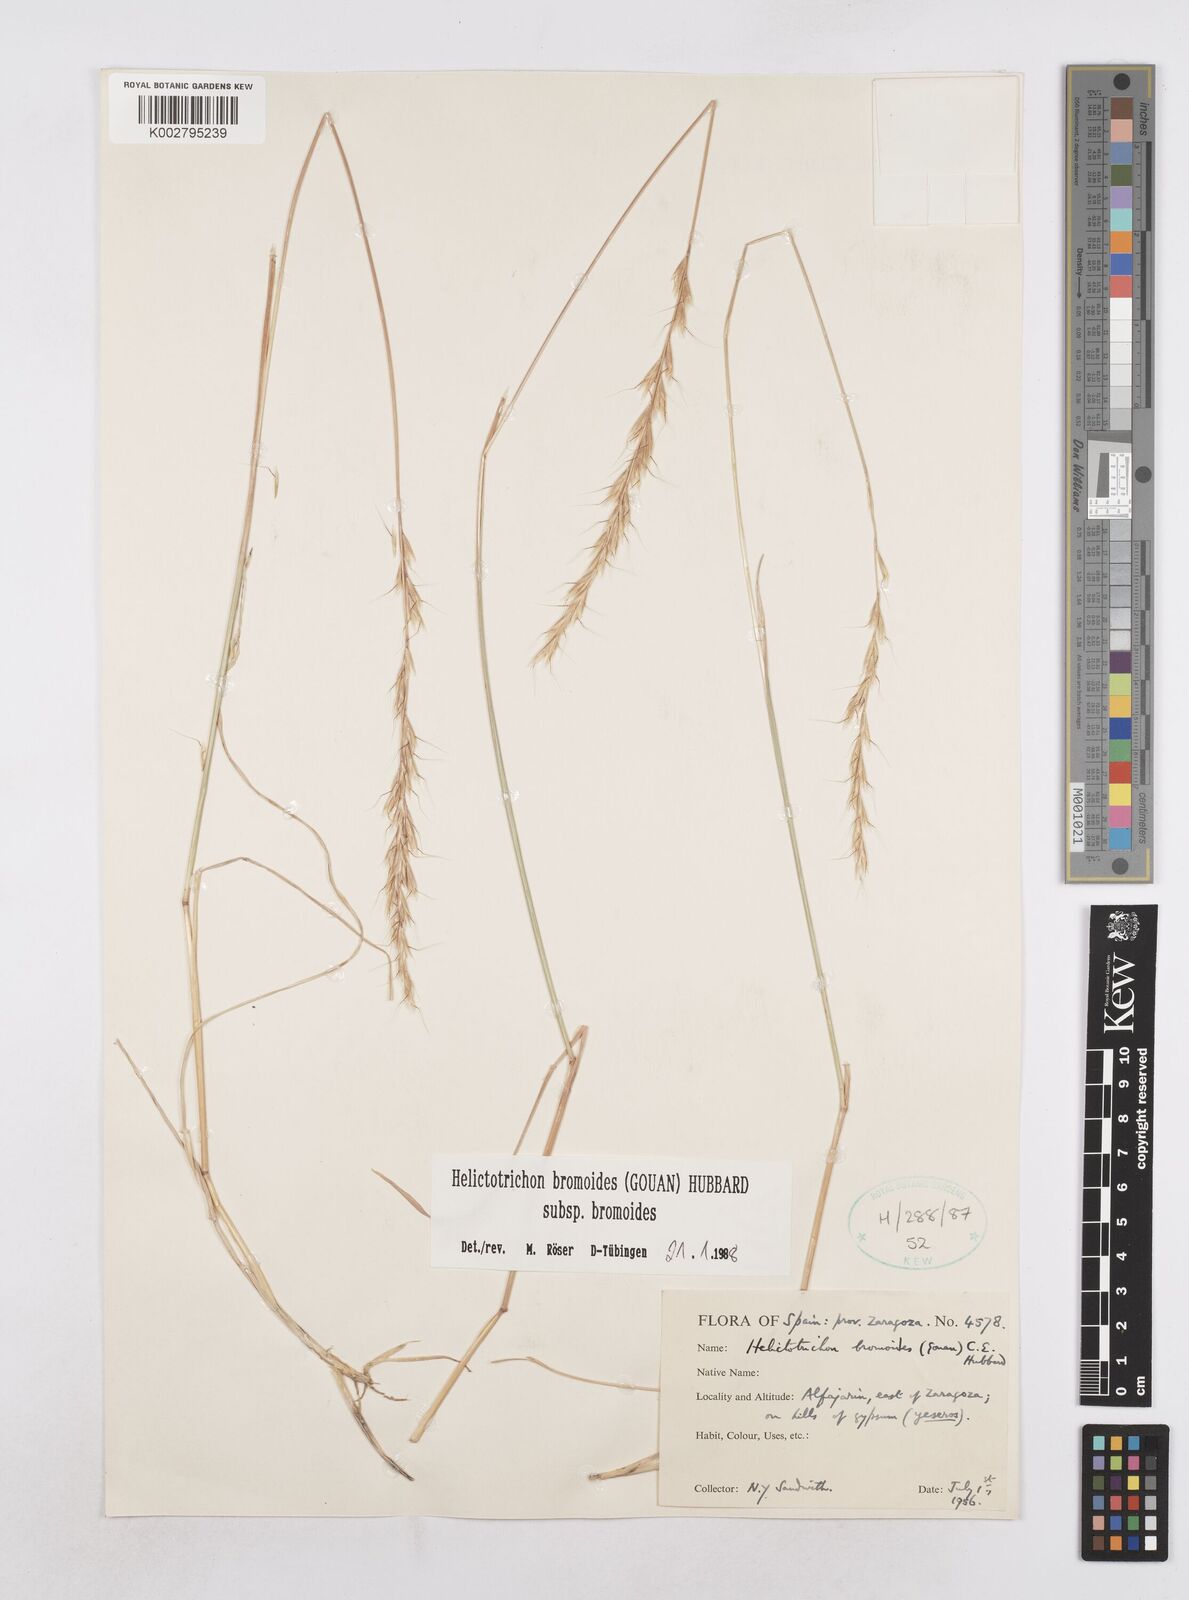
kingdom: Plantae
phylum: Tracheophyta
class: Liliopsida
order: Poales
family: Poaceae
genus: Helictochloa
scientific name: Helictochloa bromoides
